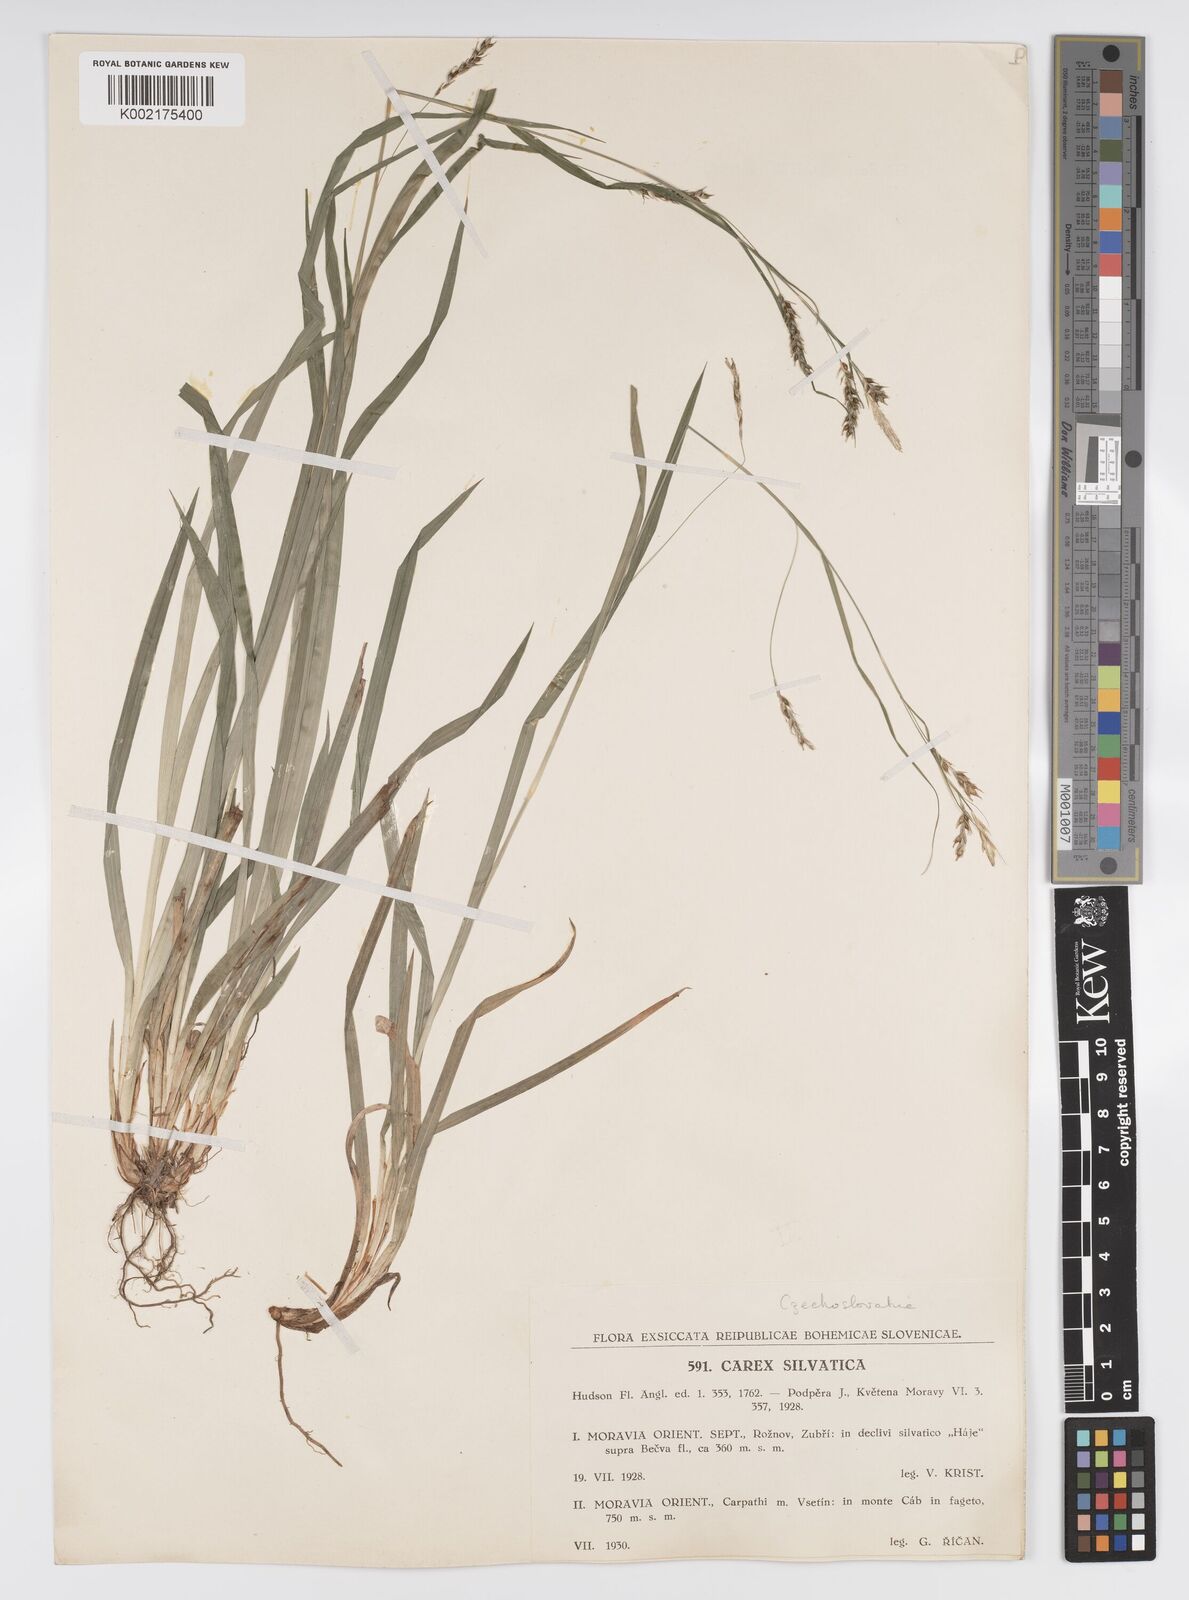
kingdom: Plantae
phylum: Tracheophyta
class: Liliopsida
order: Poales
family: Cyperaceae
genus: Carex
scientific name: Carex sylvatica
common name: Wood-sedge
